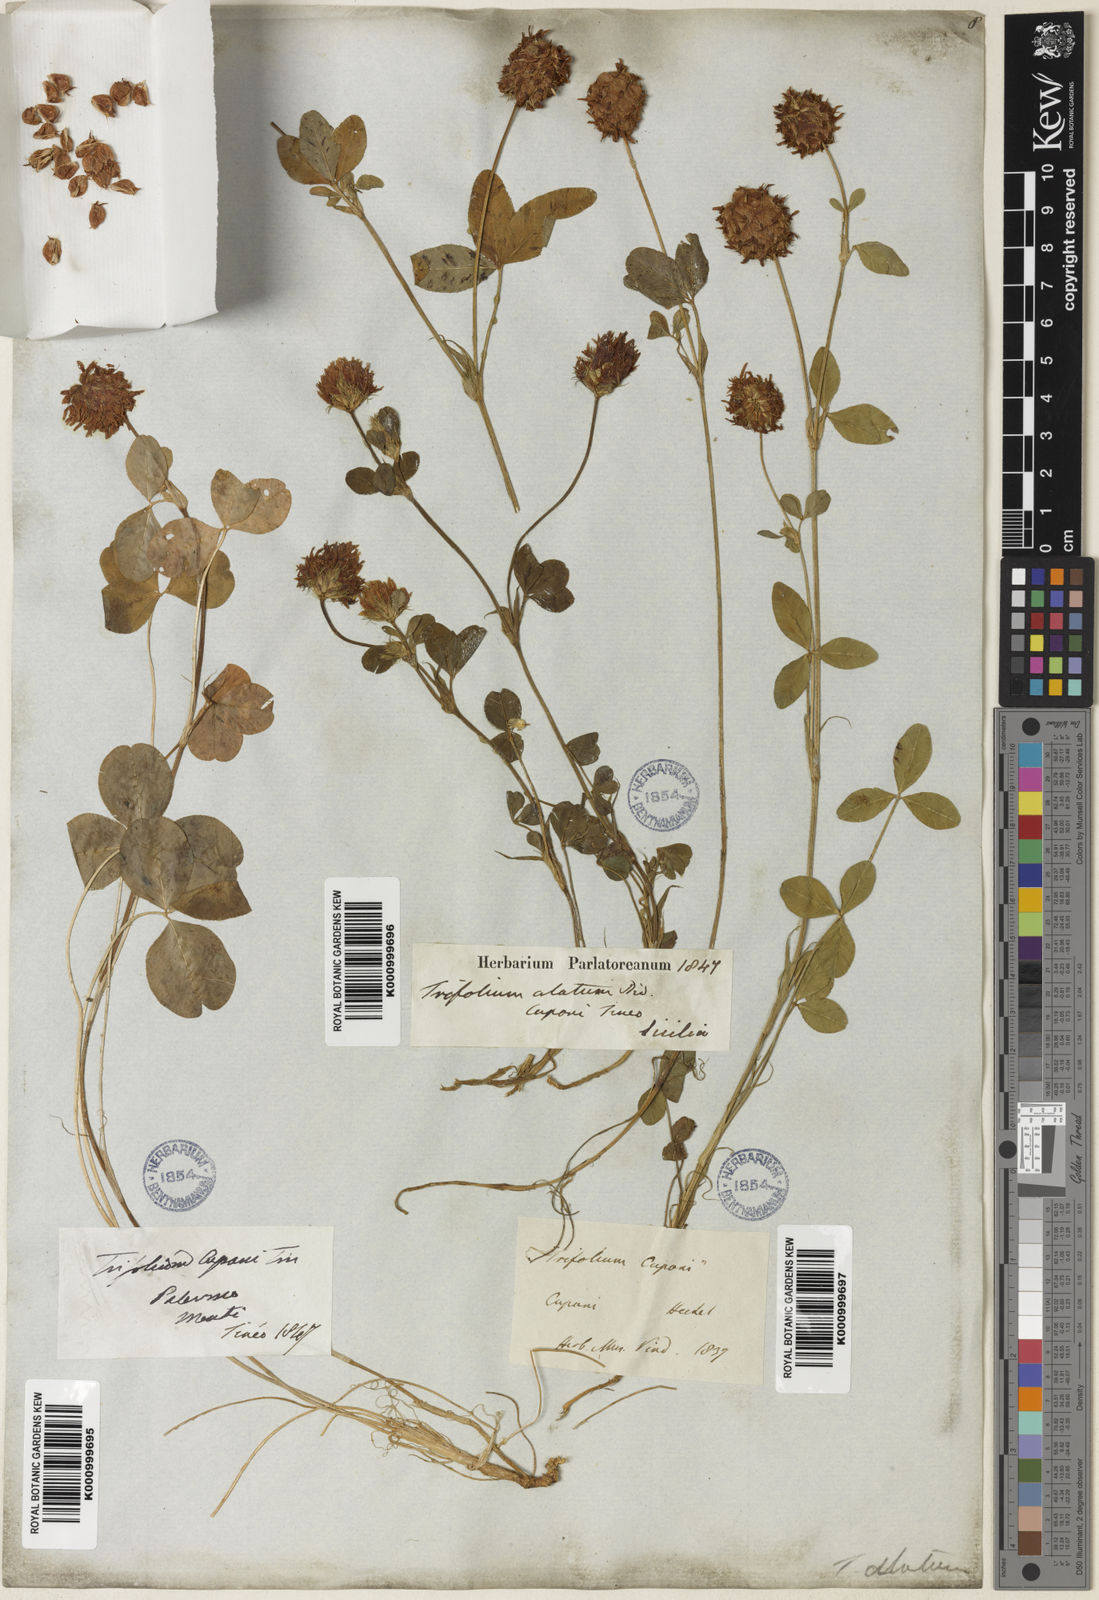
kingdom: Plantae
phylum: Tracheophyta
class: Magnoliopsida
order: Fabales
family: Fabaceae
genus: Trifolium
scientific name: Trifolium physodes
